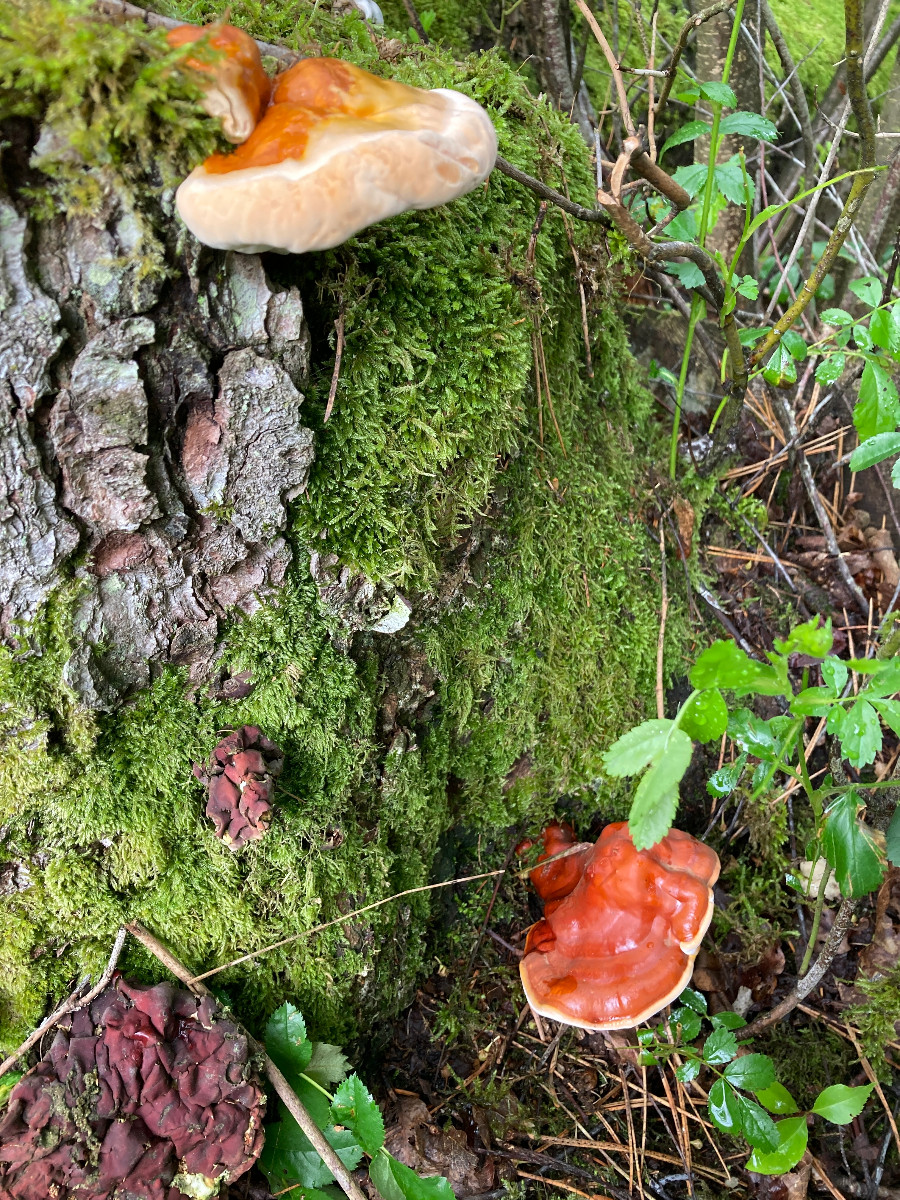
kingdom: Fungi
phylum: Basidiomycota
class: Agaricomycetes
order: Polyporales
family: Polyporaceae
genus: Ganoderma
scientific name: Ganoderma lucidum
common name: skinnende lakporesvamp
